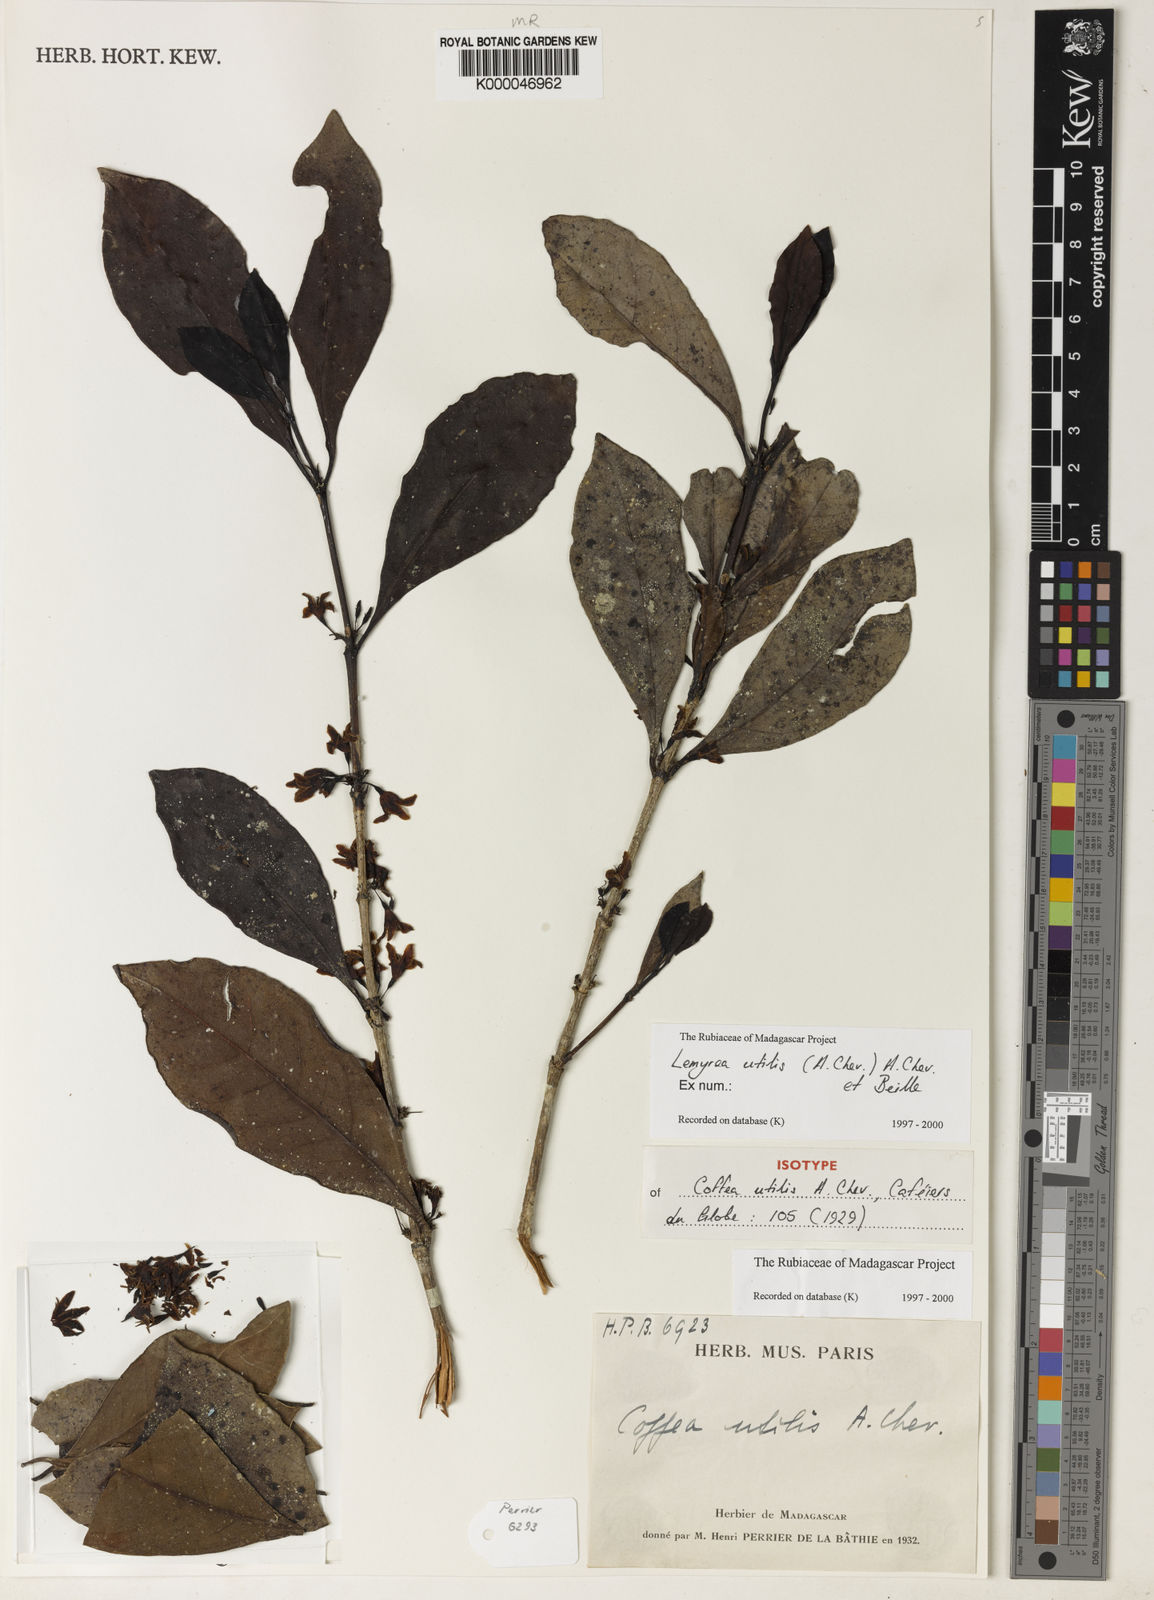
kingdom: Plantae
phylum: Tracheophyta
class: Magnoliopsida
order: Gentianales
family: Rubiaceae
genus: Lemyrea
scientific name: Lemyrea utilis
